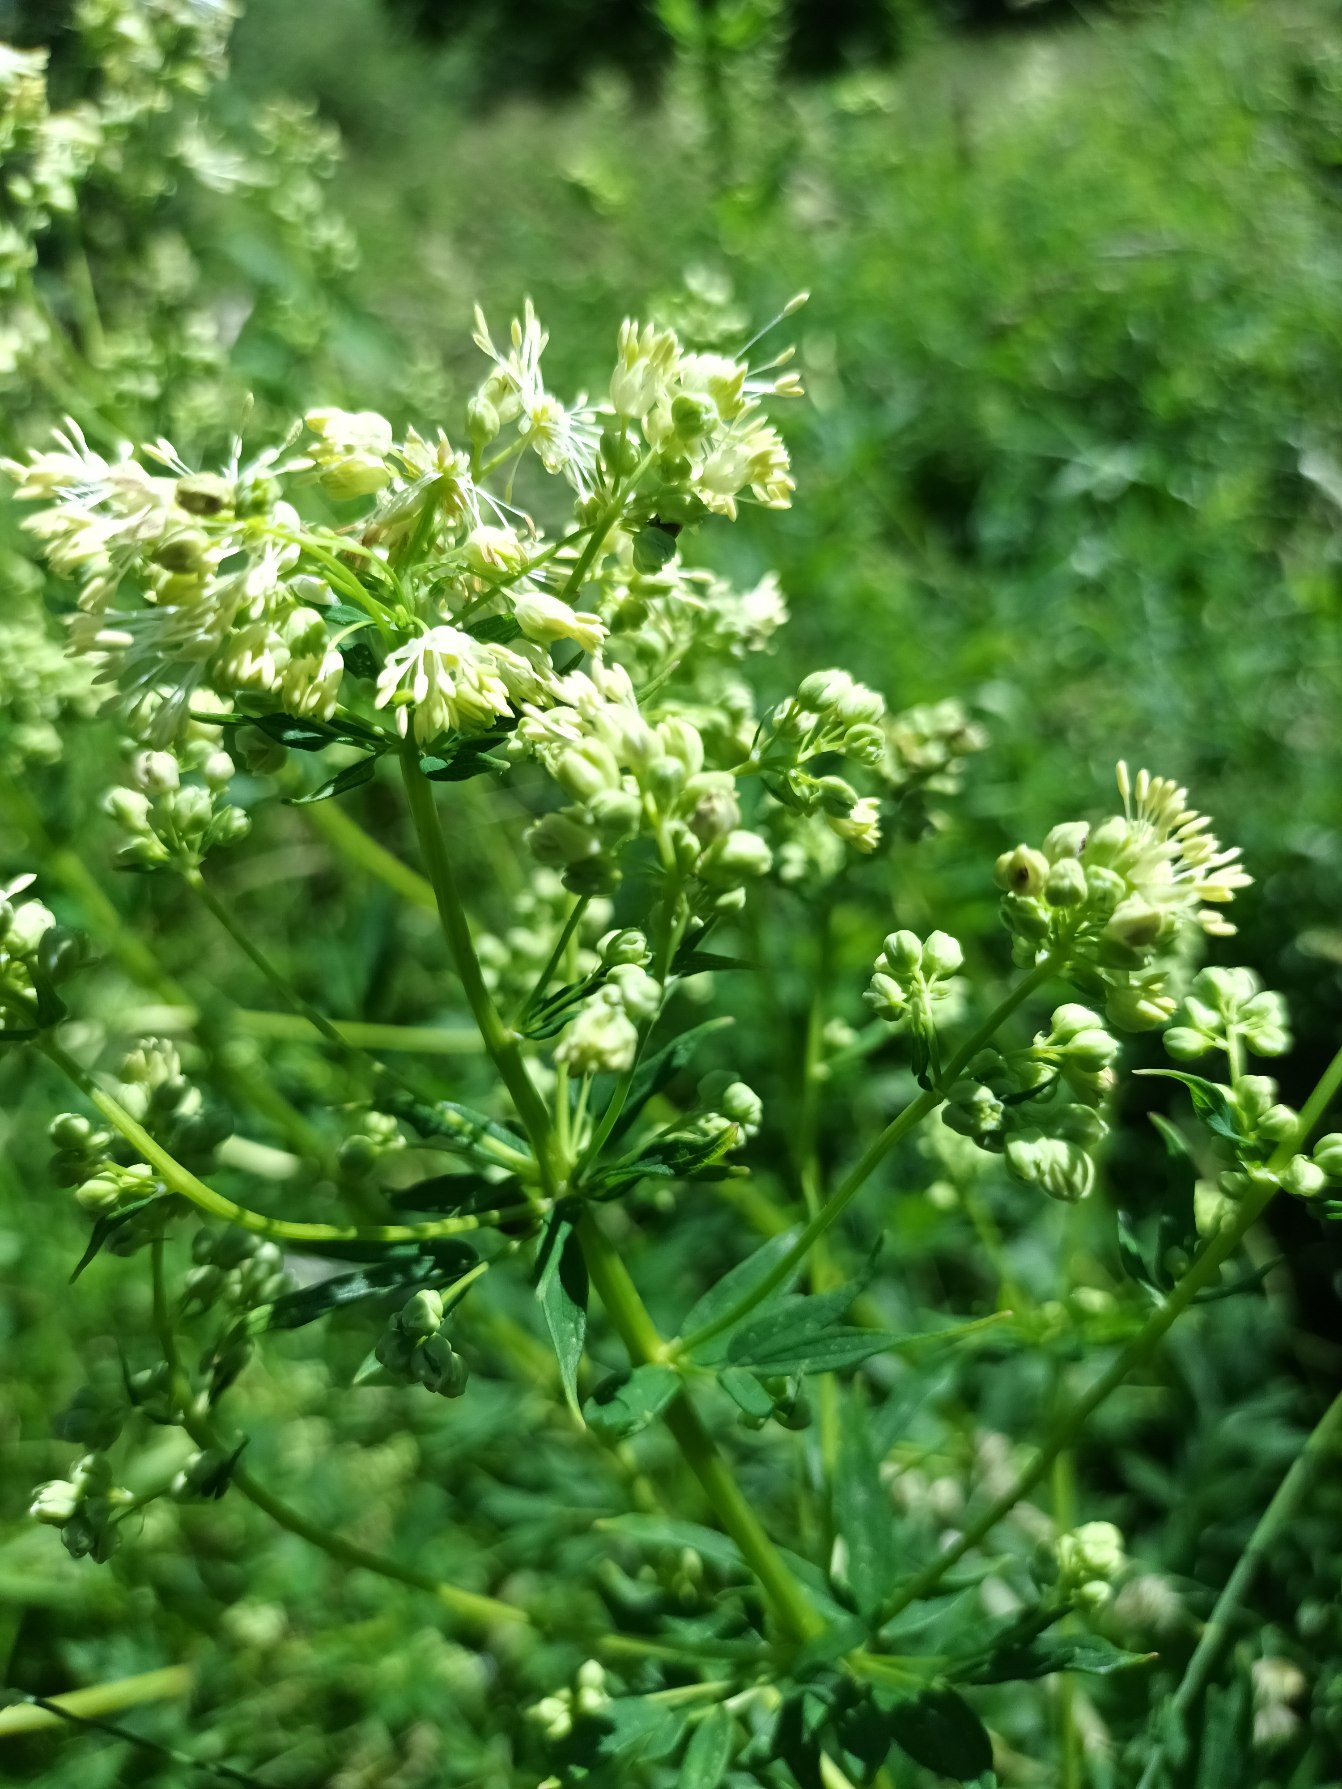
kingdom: Plantae
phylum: Tracheophyta
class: Magnoliopsida
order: Ranunculales
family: Ranunculaceae
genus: Thalictrum
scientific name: Thalictrum flavum
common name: Gul frøstjerne
